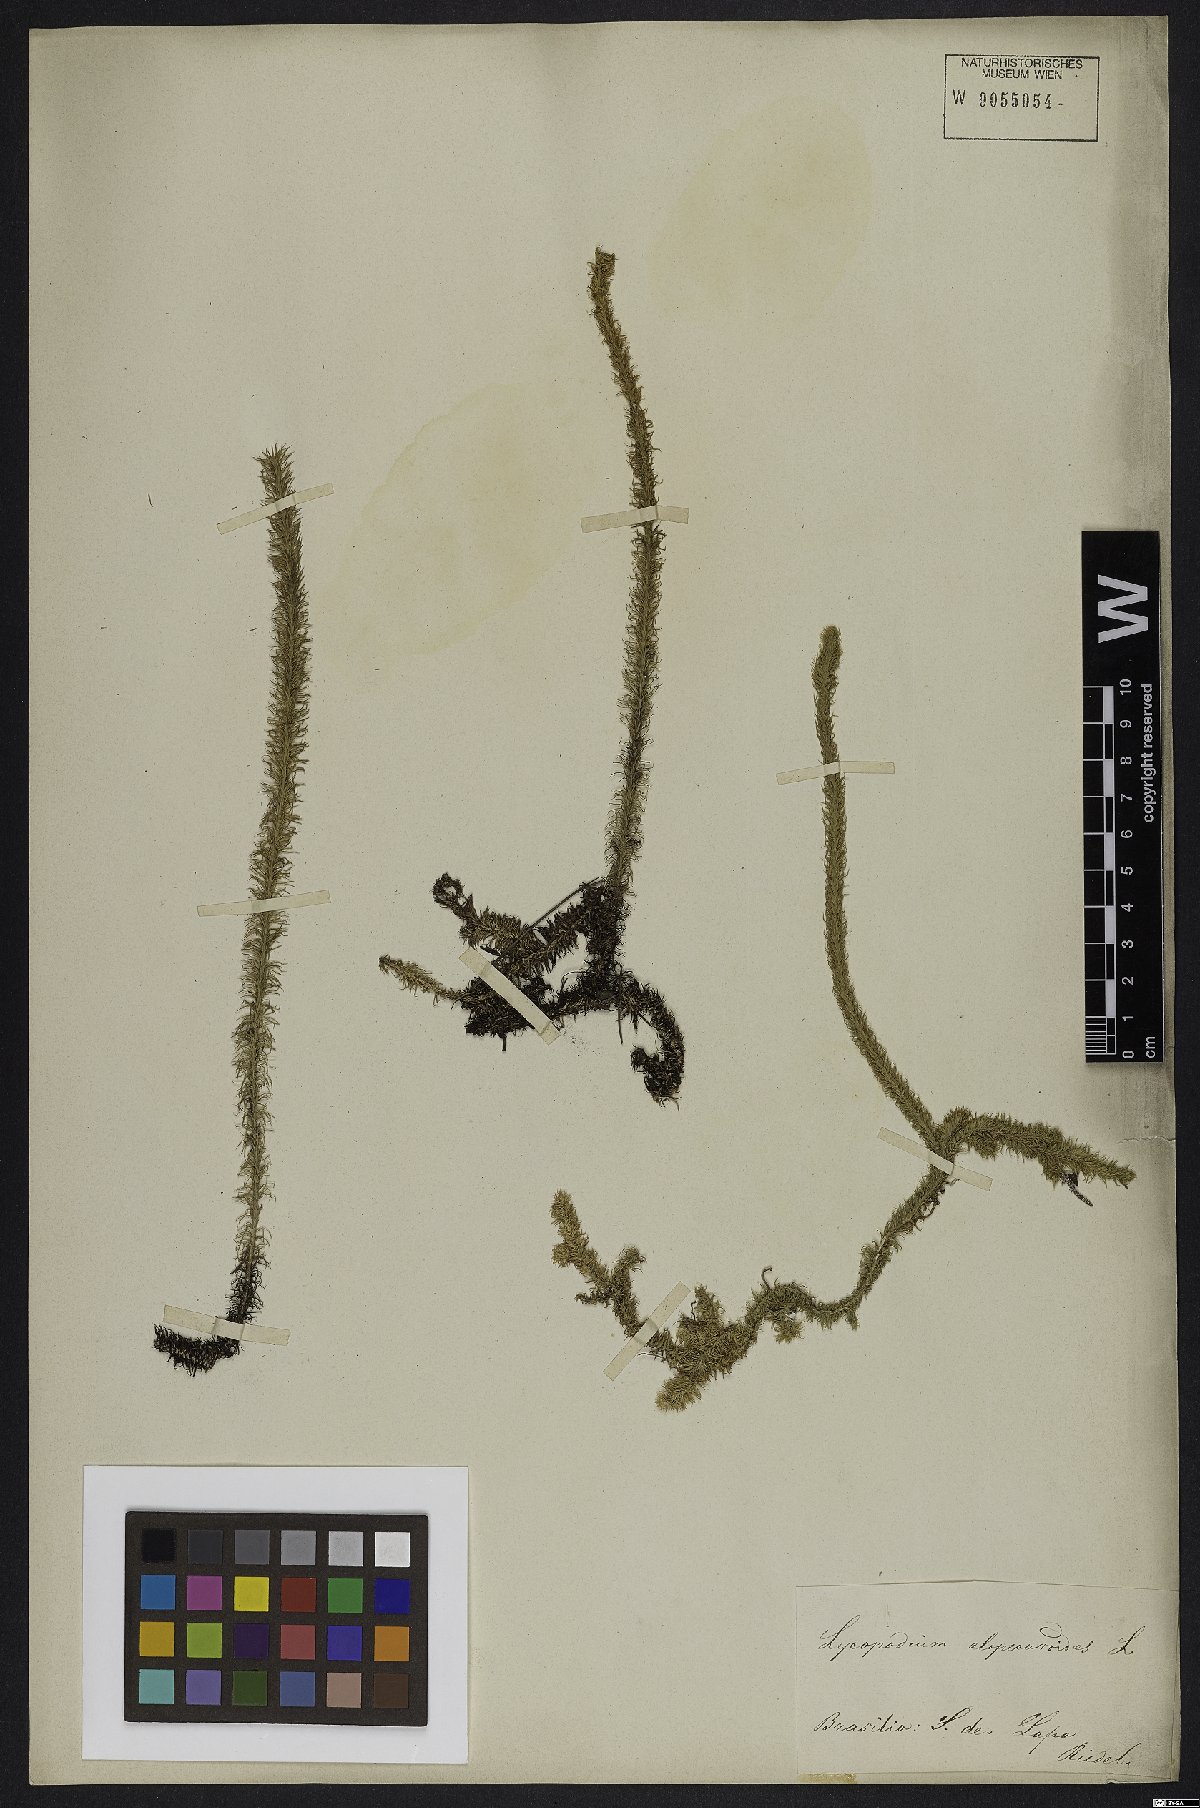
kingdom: Plantae
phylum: Tracheophyta
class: Lycopodiopsida
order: Lycopodiales
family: Lycopodiaceae
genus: Lycopodiella
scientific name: Lycopodiella alopecuroides
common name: Foxtail clubmoss
